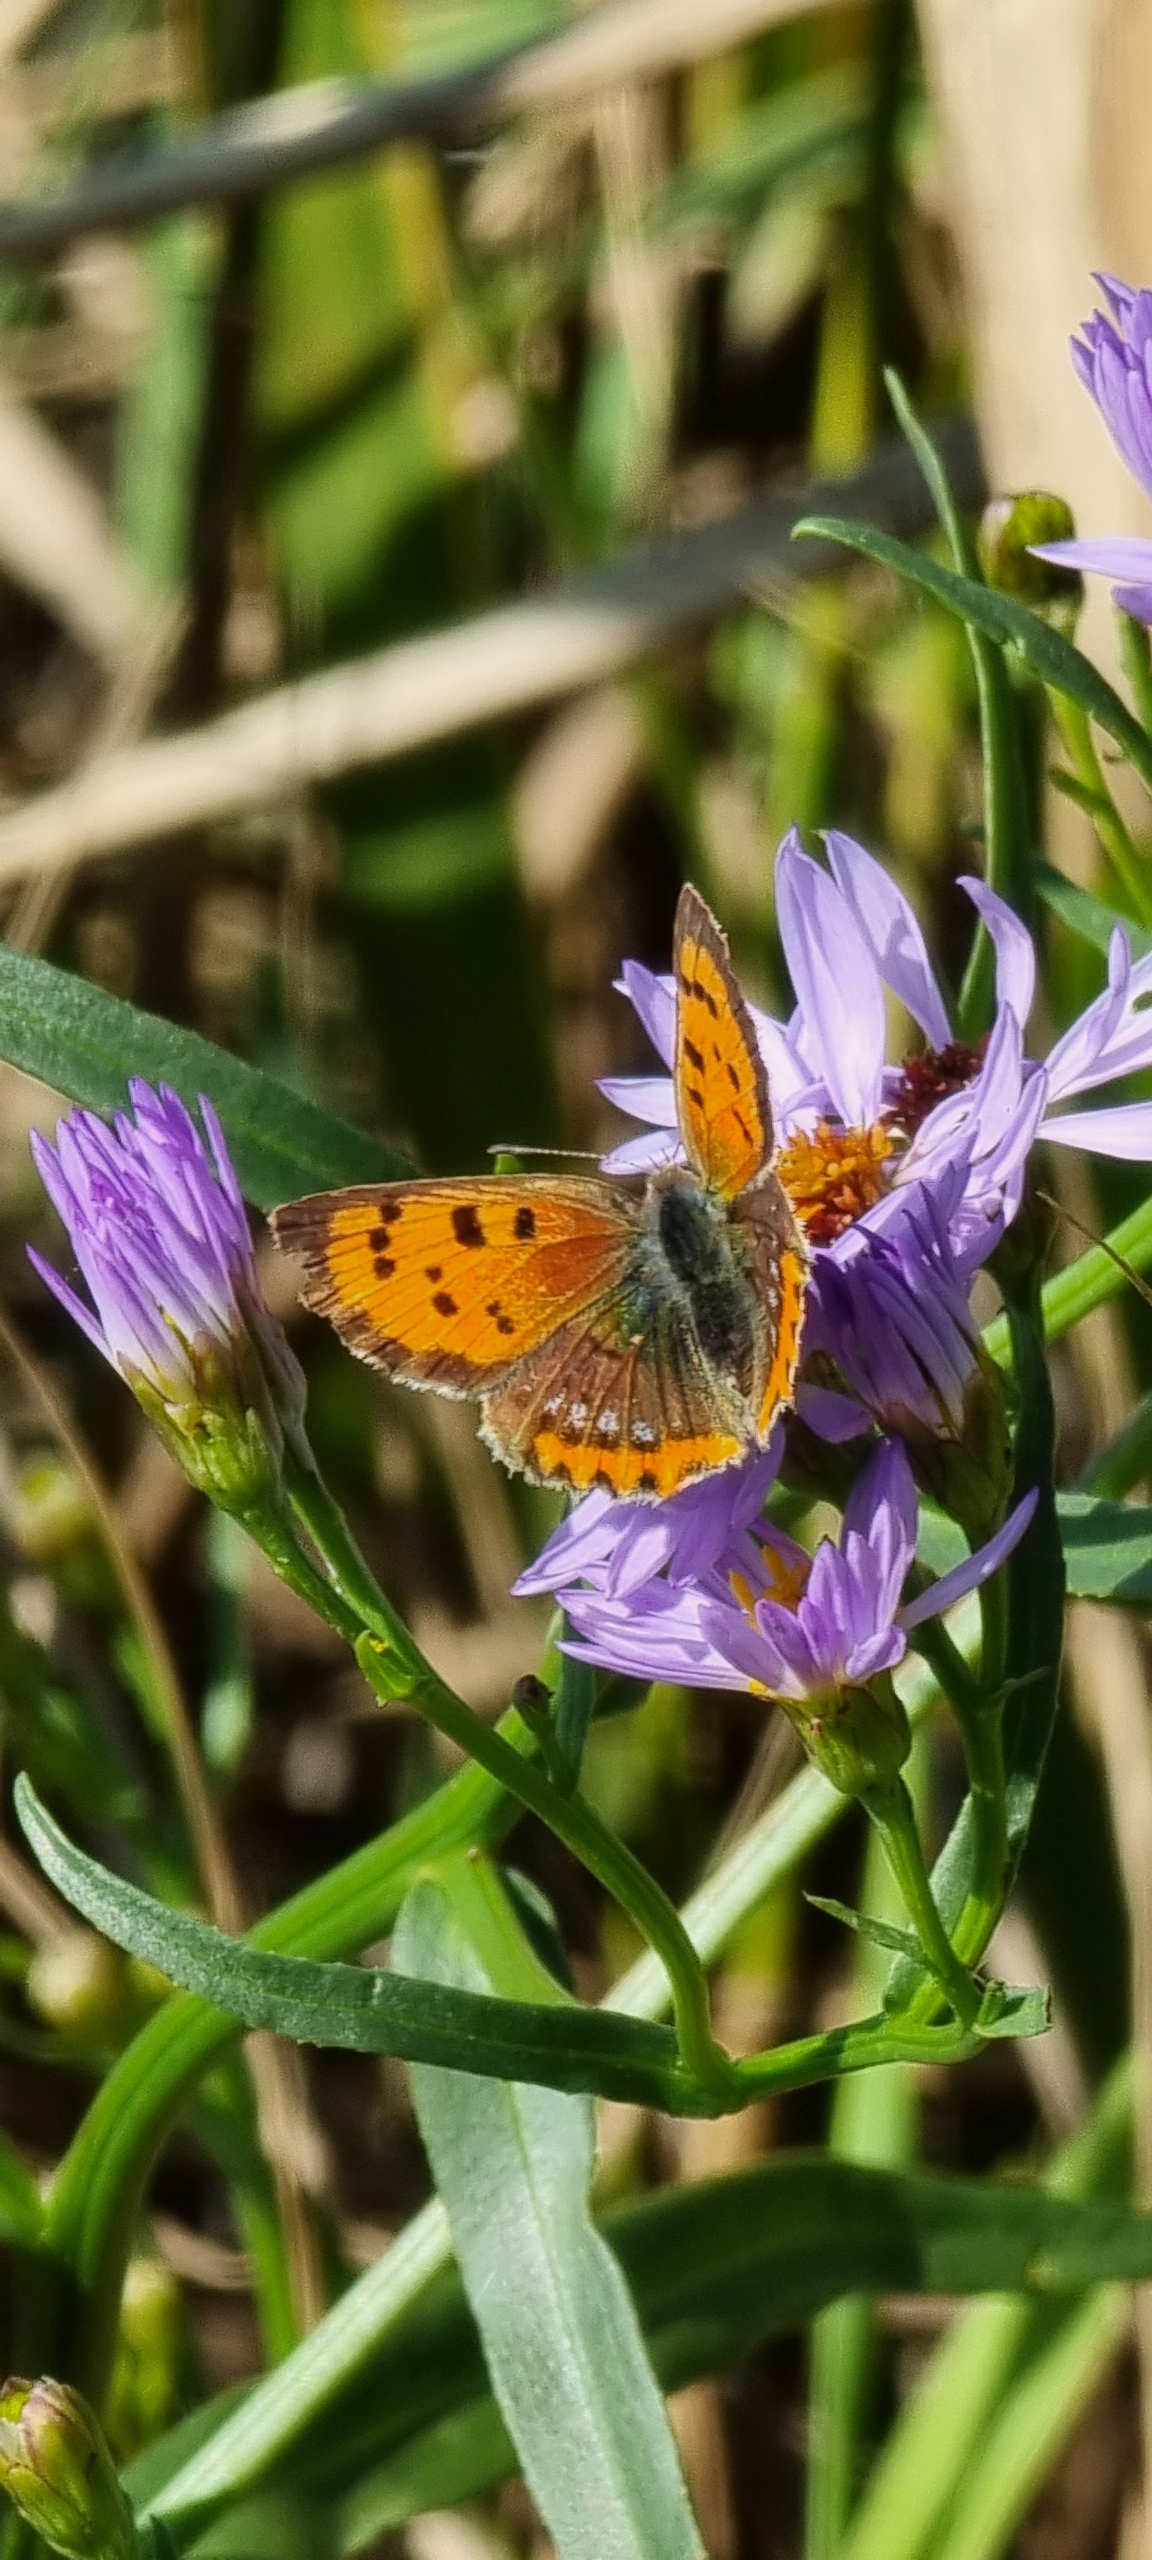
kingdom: Animalia
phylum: Arthropoda
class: Insecta
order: Lepidoptera
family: Lycaenidae
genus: Lycaena
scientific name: Lycaena phlaeas
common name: Lille ildfugl
